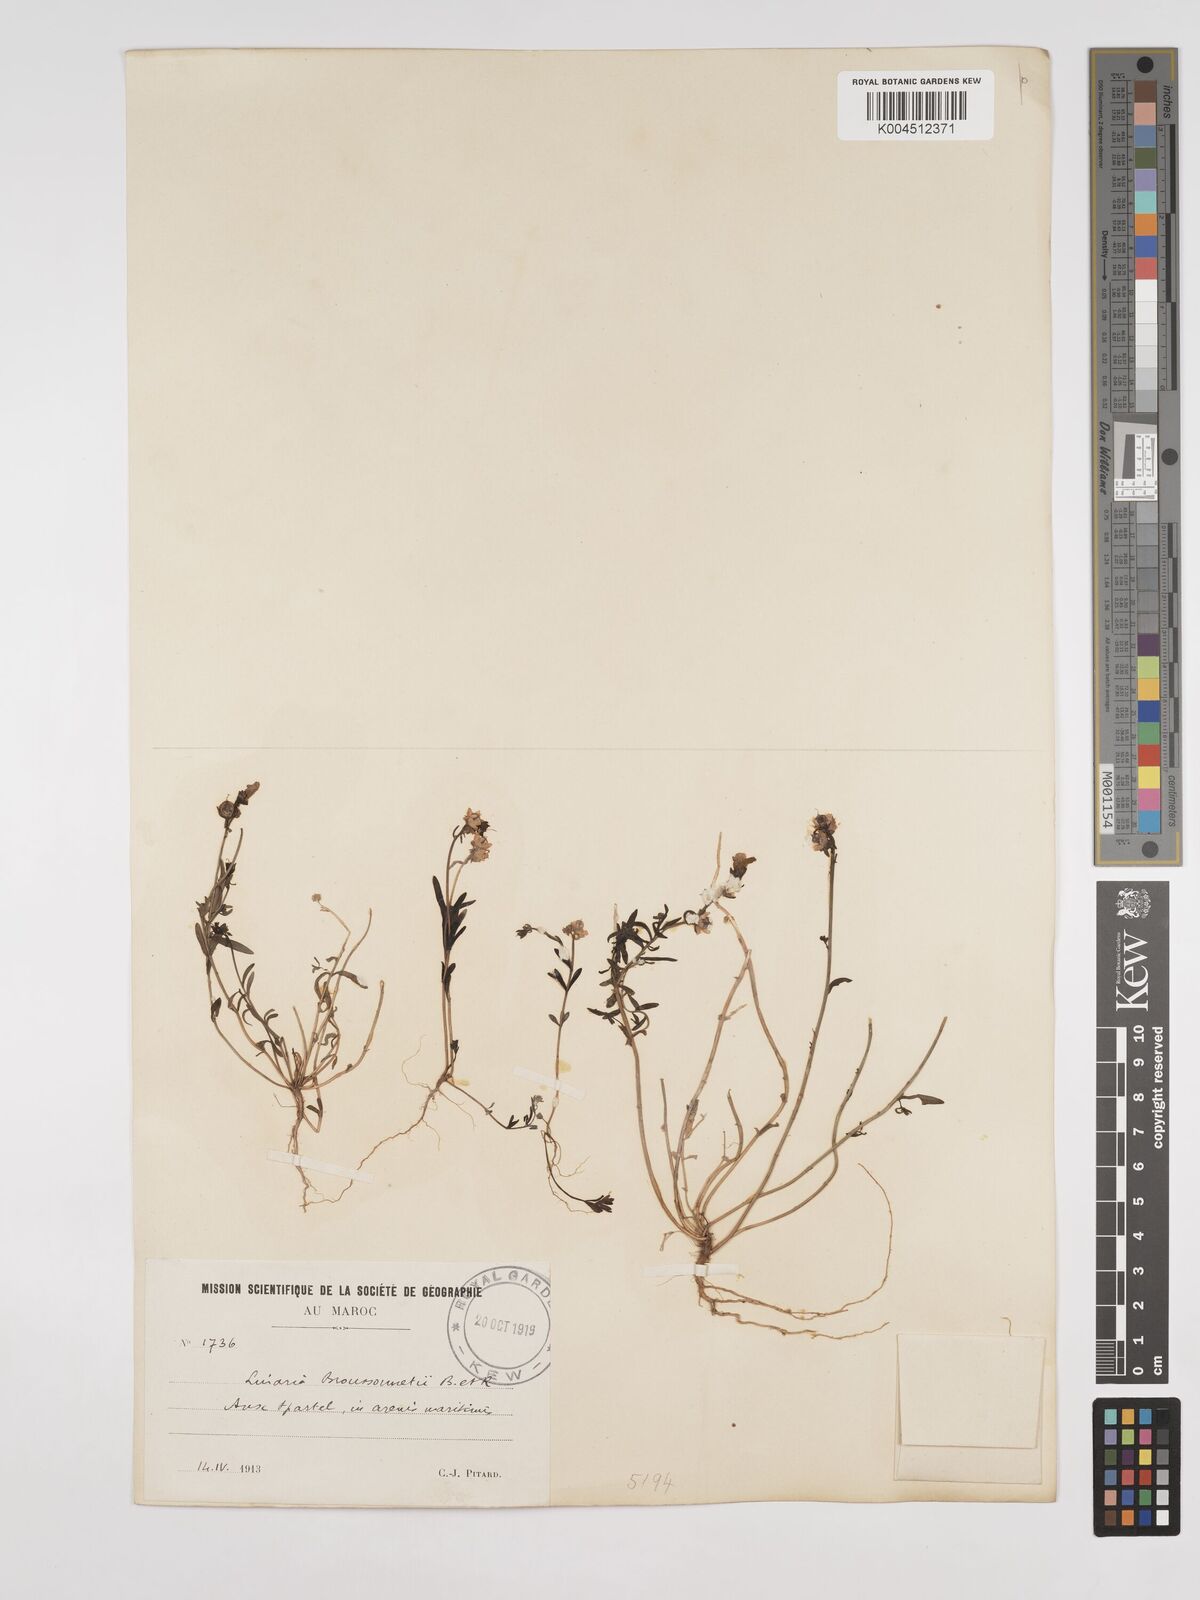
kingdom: Plantae
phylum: Tracheophyta
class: Magnoliopsida
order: Lamiales
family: Plantaginaceae
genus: Linaria
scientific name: Linaria
